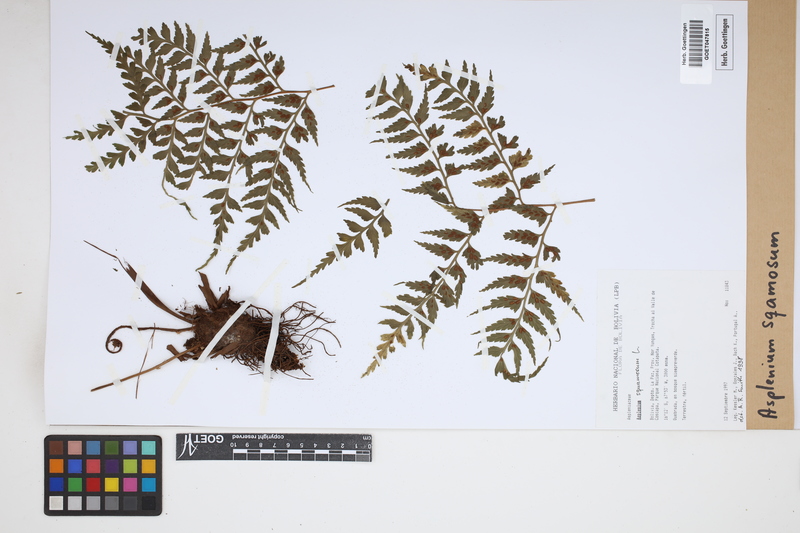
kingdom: Plantae
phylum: Tracheophyta
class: Polypodiopsida
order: Polypodiales
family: Aspleniaceae
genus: Asplenium
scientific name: Asplenium squamosum
